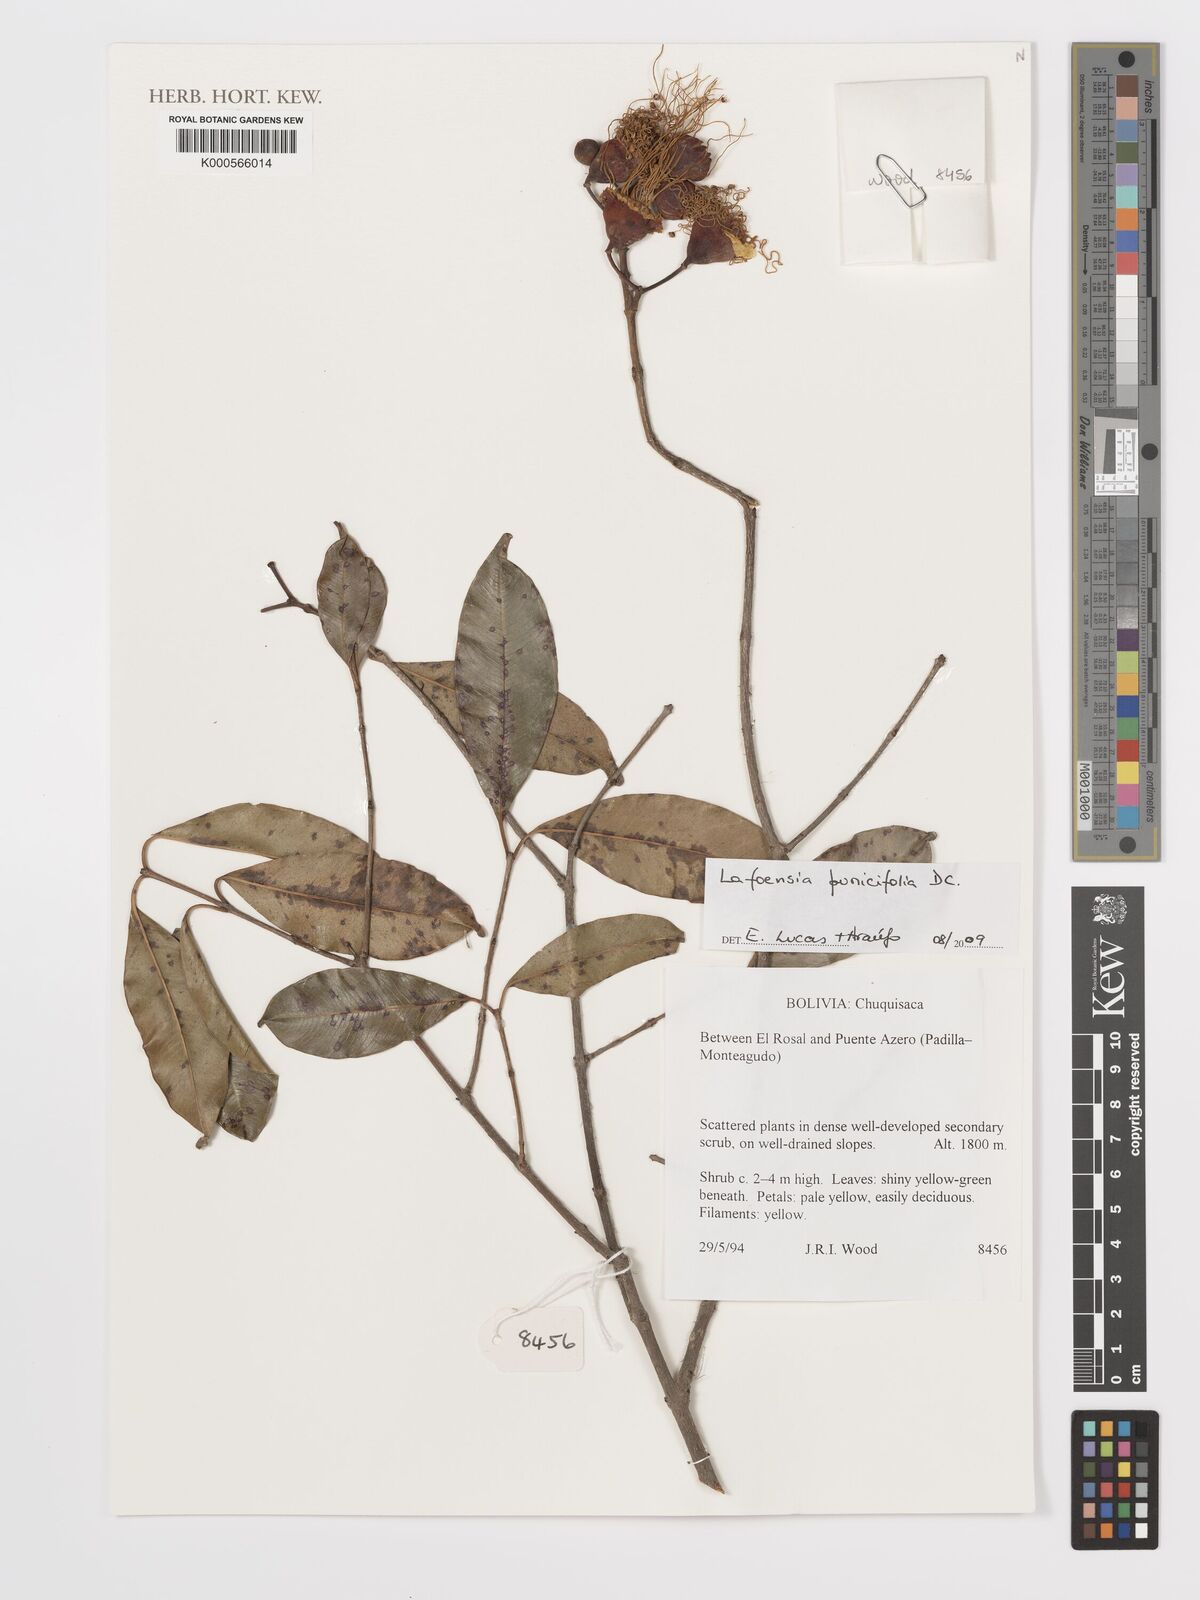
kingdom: Plantae
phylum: Tracheophyta
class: Magnoliopsida
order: Myrtales
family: Lythraceae
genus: Lafoensia
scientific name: Lafoensia punicifolia
